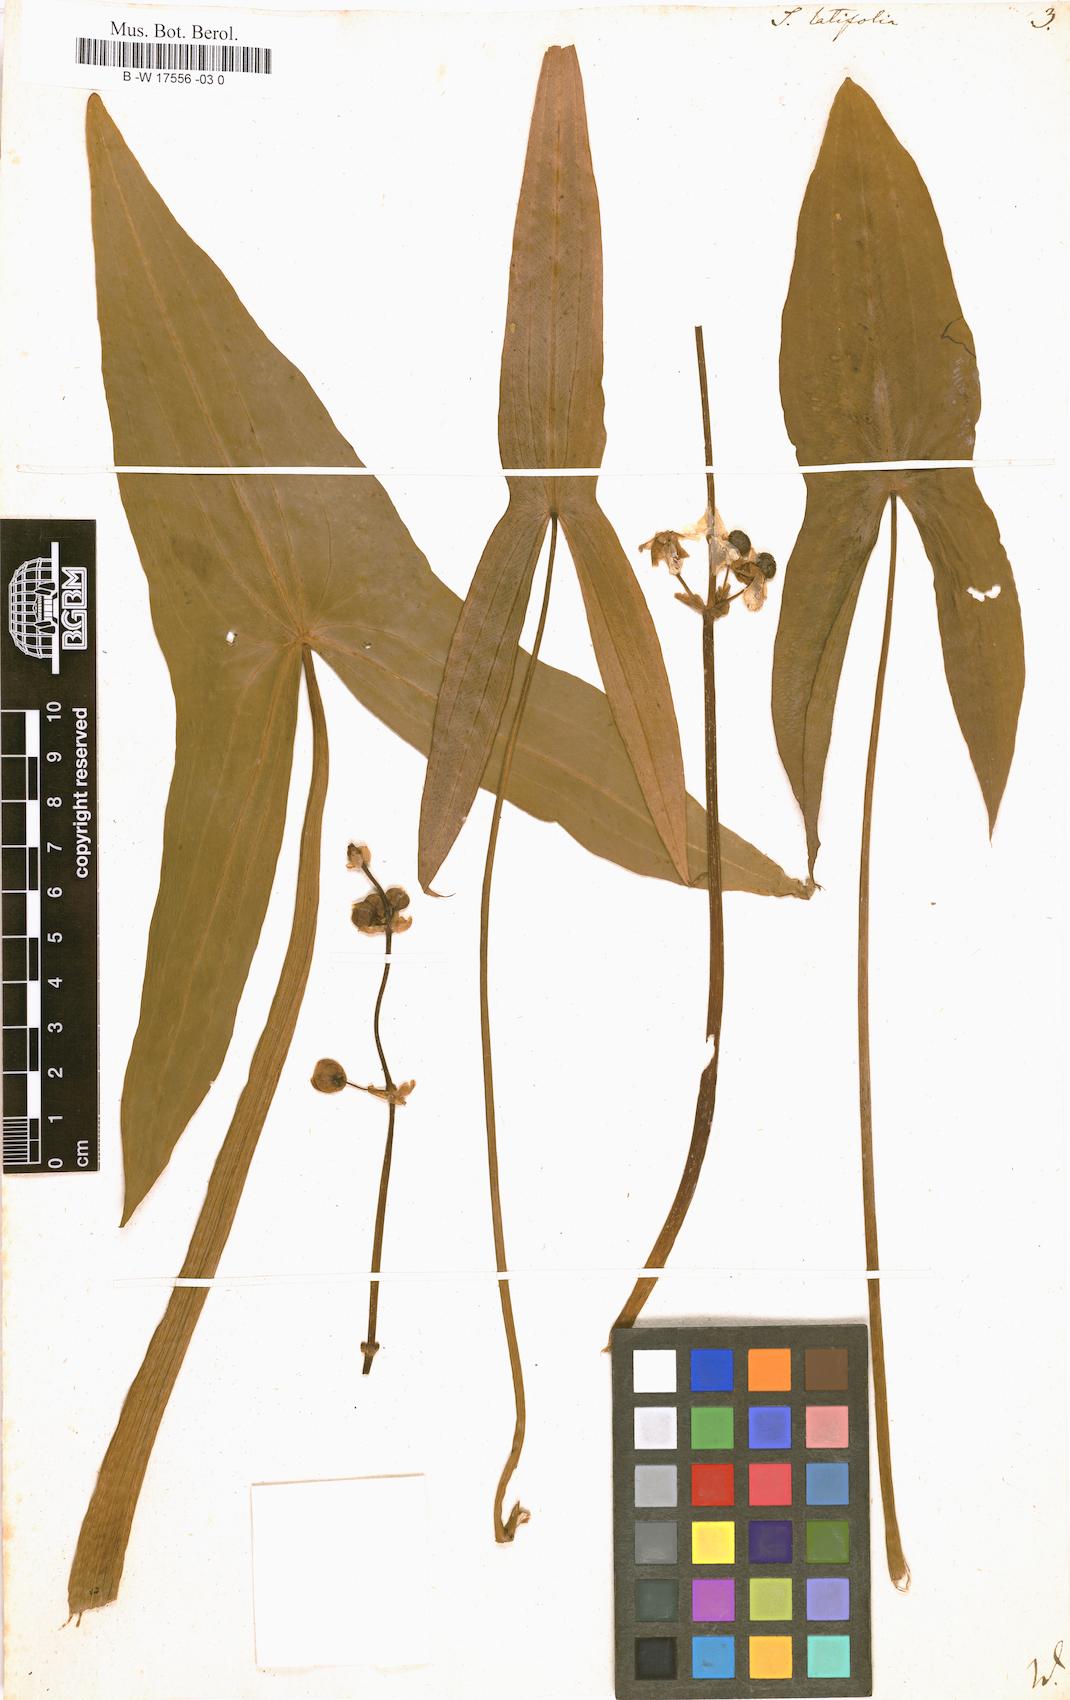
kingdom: Plantae
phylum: Tracheophyta
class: Liliopsida
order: Alismatales
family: Alismataceae
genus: Sagittaria
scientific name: Sagittaria latifolia
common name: Duck-potato
